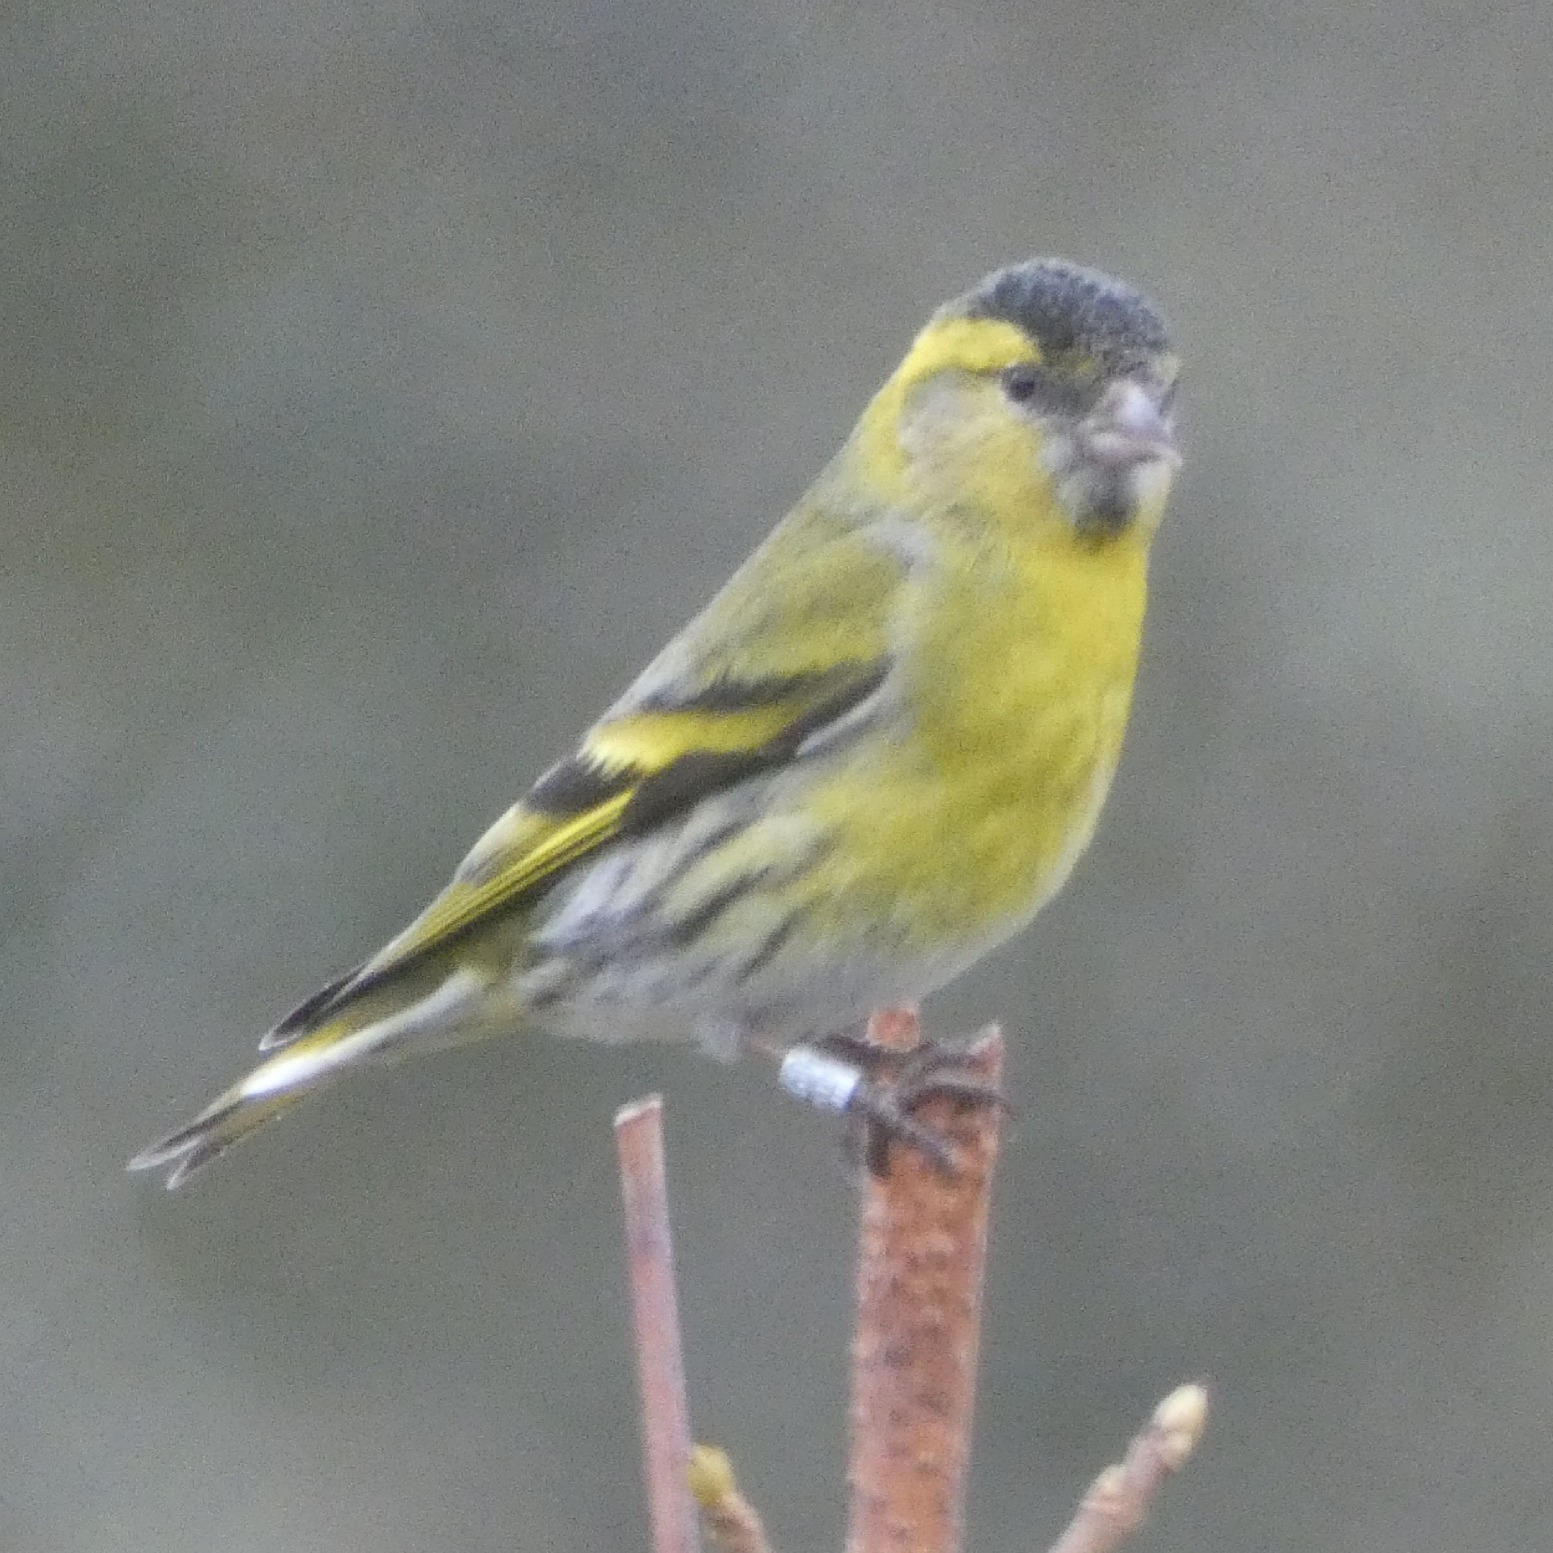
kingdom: Animalia
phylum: Chordata
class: Aves
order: Passeriformes
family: Fringillidae
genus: Spinus
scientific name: Spinus spinus
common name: Grønsisken
